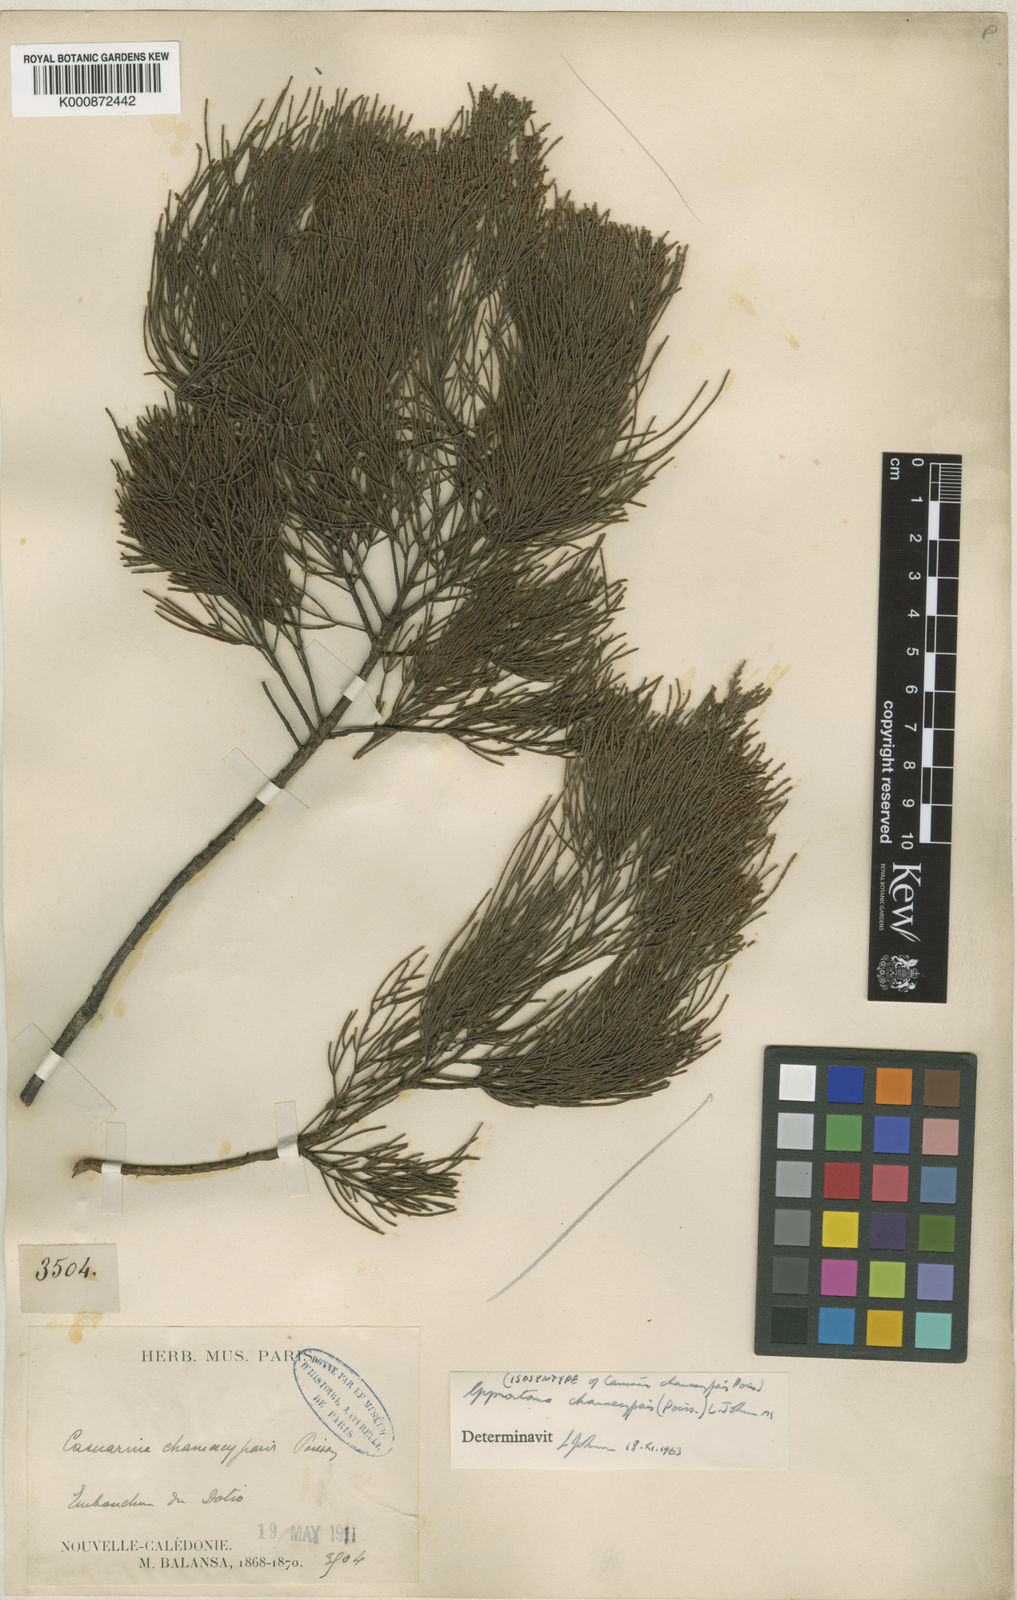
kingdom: Plantae
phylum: Tracheophyta
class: Magnoliopsida
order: Fagales
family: Casuarinaceae
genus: Gymnostoma
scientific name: Gymnostoma chamaecyparis
